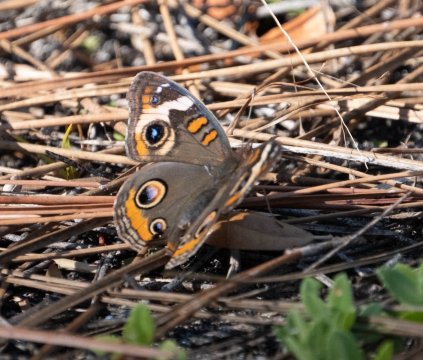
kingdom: Animalia
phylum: Arthropoda
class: Insecta
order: Lepidoptera
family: Nymphalidae
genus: Junonia
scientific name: Junonia coenia
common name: Common Buckeye
